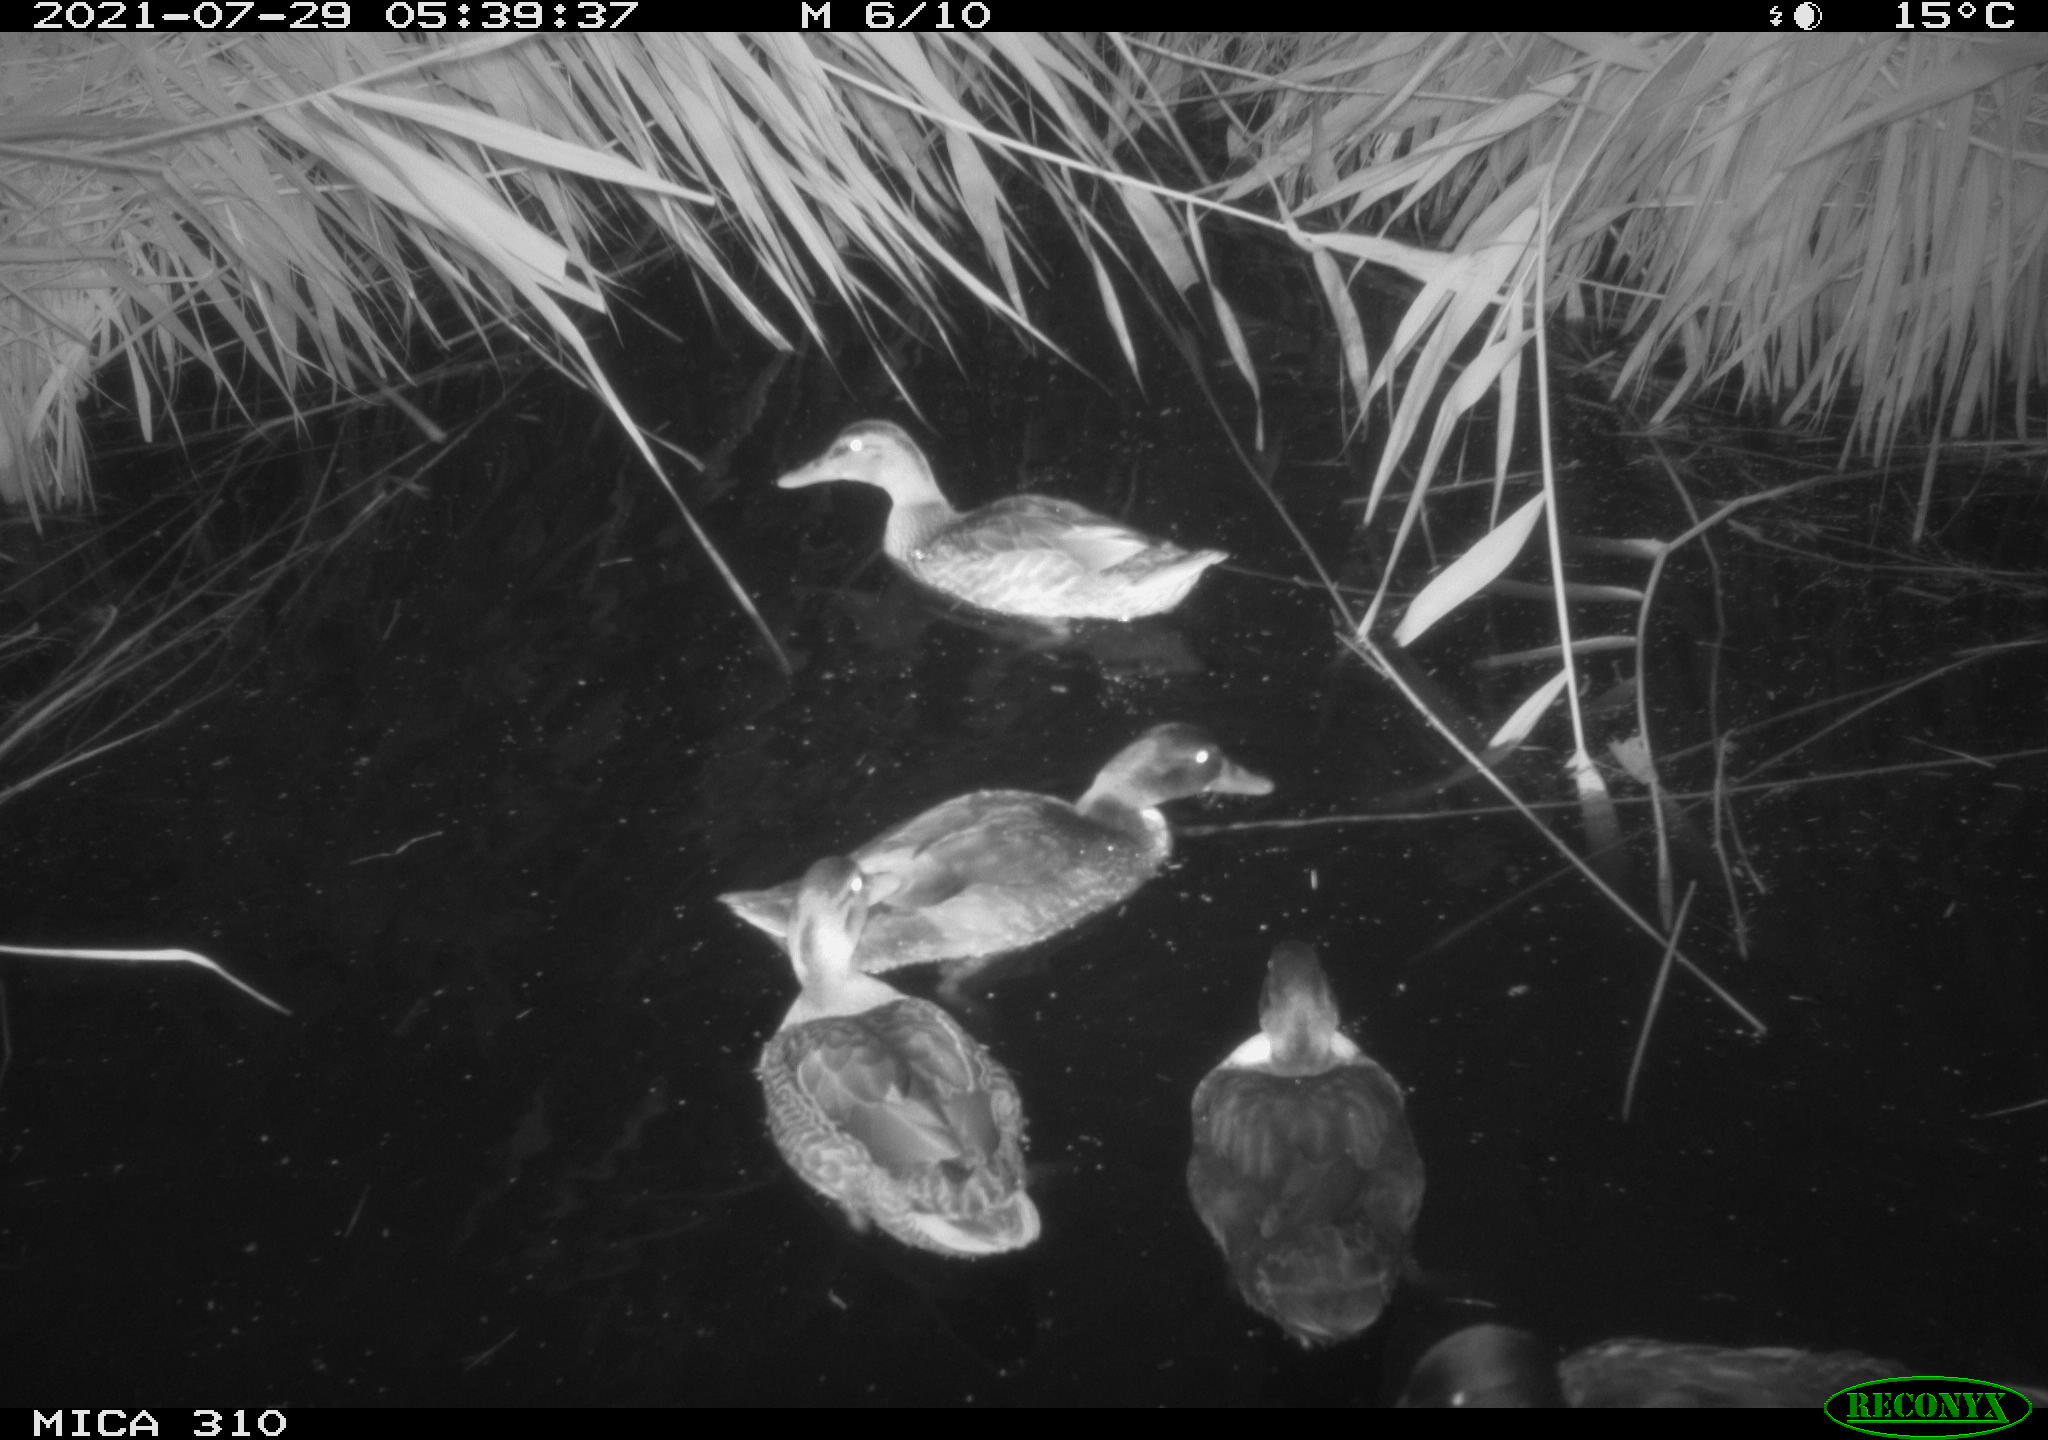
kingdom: Animalia
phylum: Chordata
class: Aves
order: Gruiformes
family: Rallidae
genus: Gallinula
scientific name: Gallinula chloropus
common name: Common moorhen
